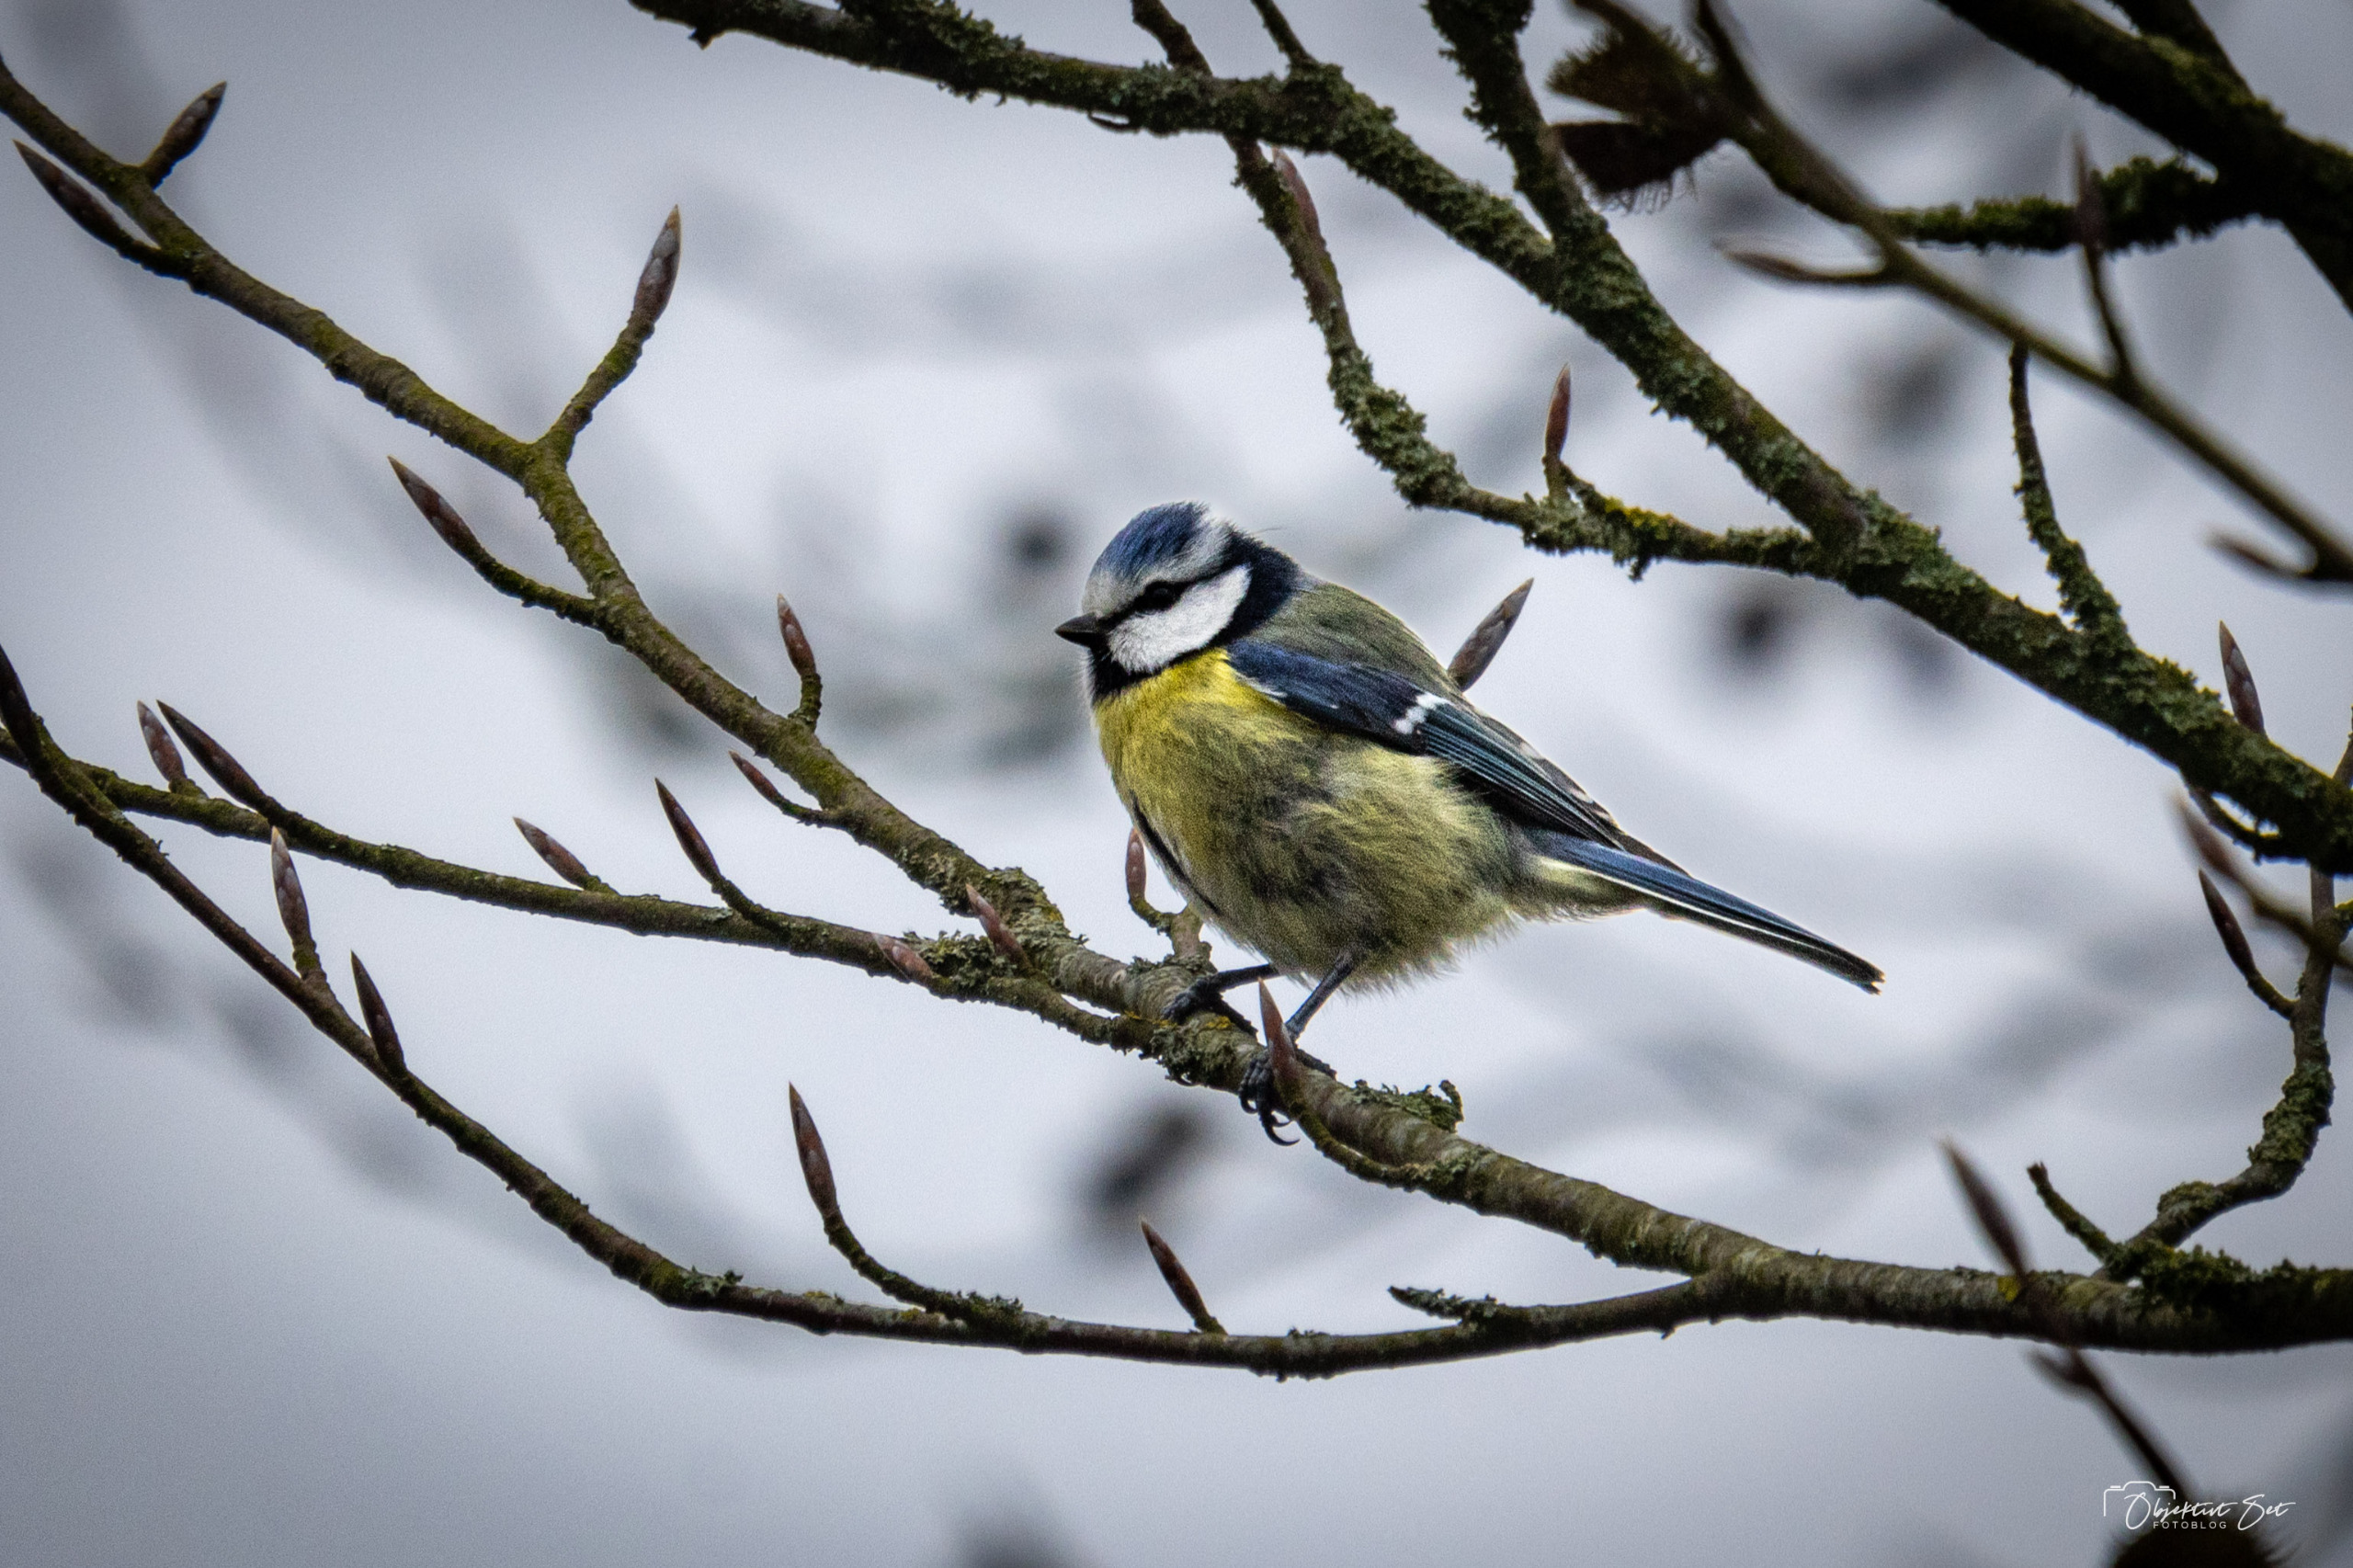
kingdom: Animalia
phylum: Chordata
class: Aves
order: Passeriformes
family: Paridae
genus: Cyanistes
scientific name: Cyanistes caeruleus
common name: Blåmejse
